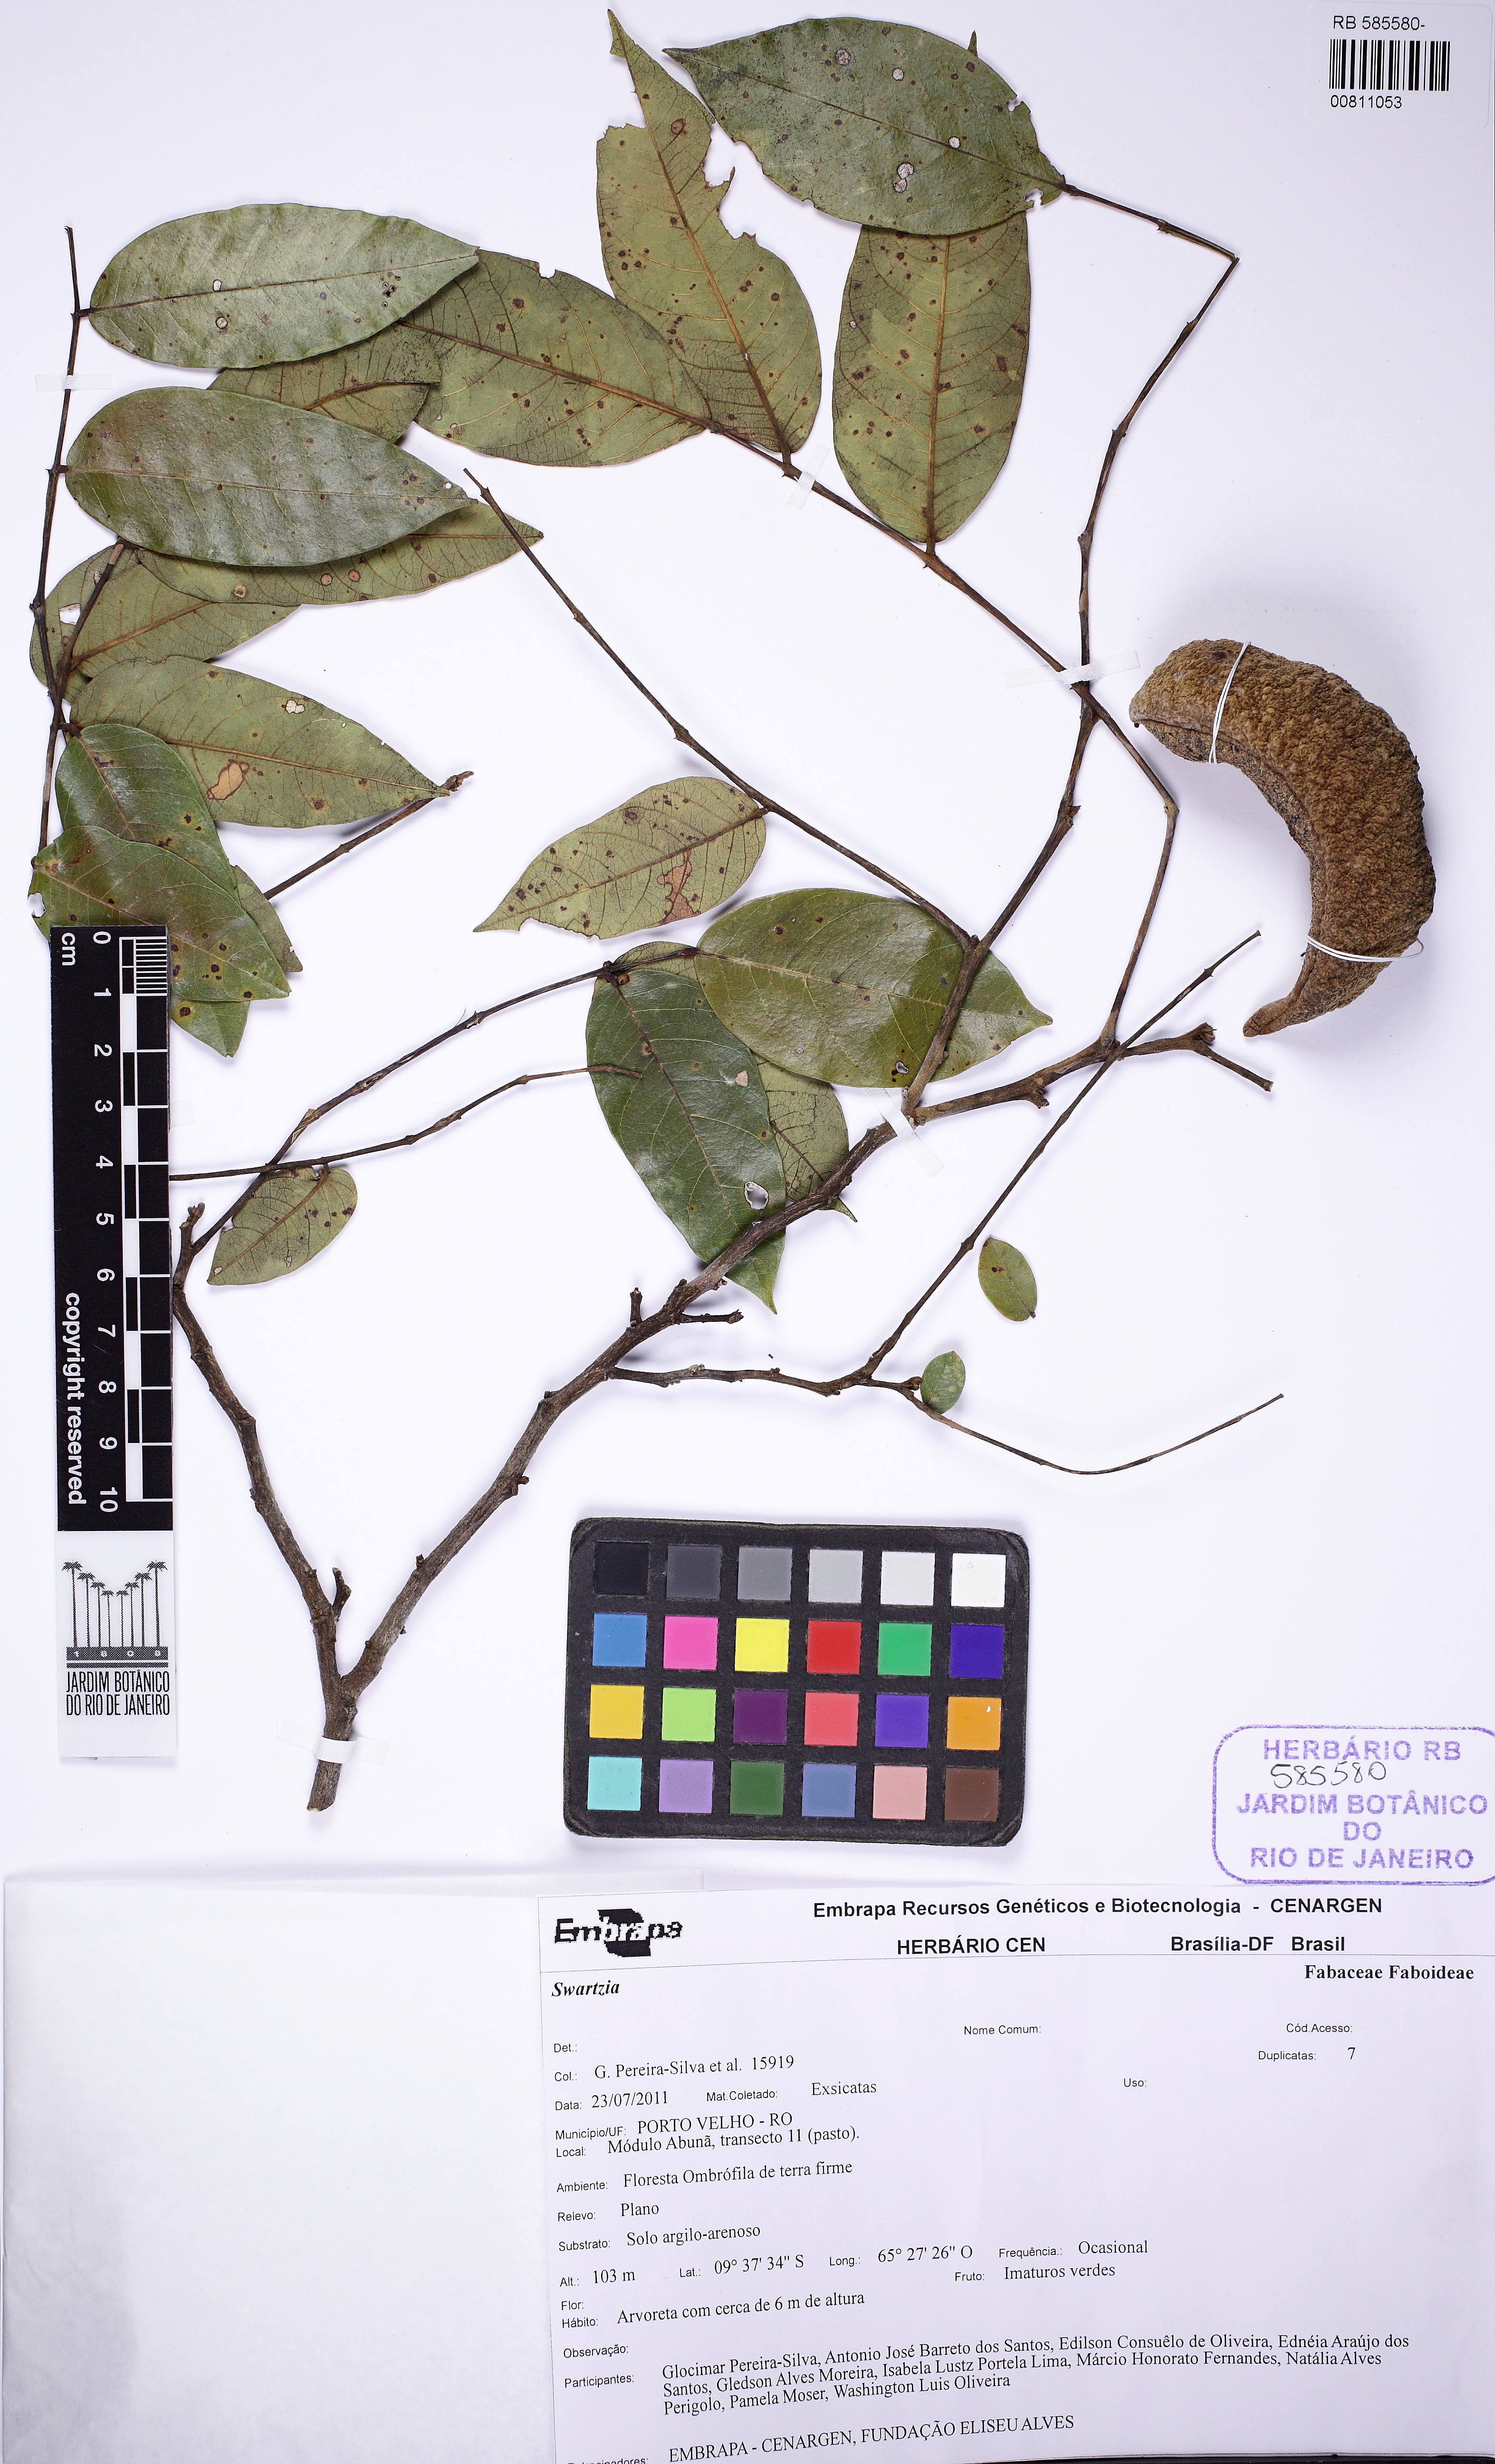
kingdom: Plantae
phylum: Tracheophyta
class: Magnoliopsida
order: Fabales
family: Fabaceae
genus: Swartzia
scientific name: Swartzia
